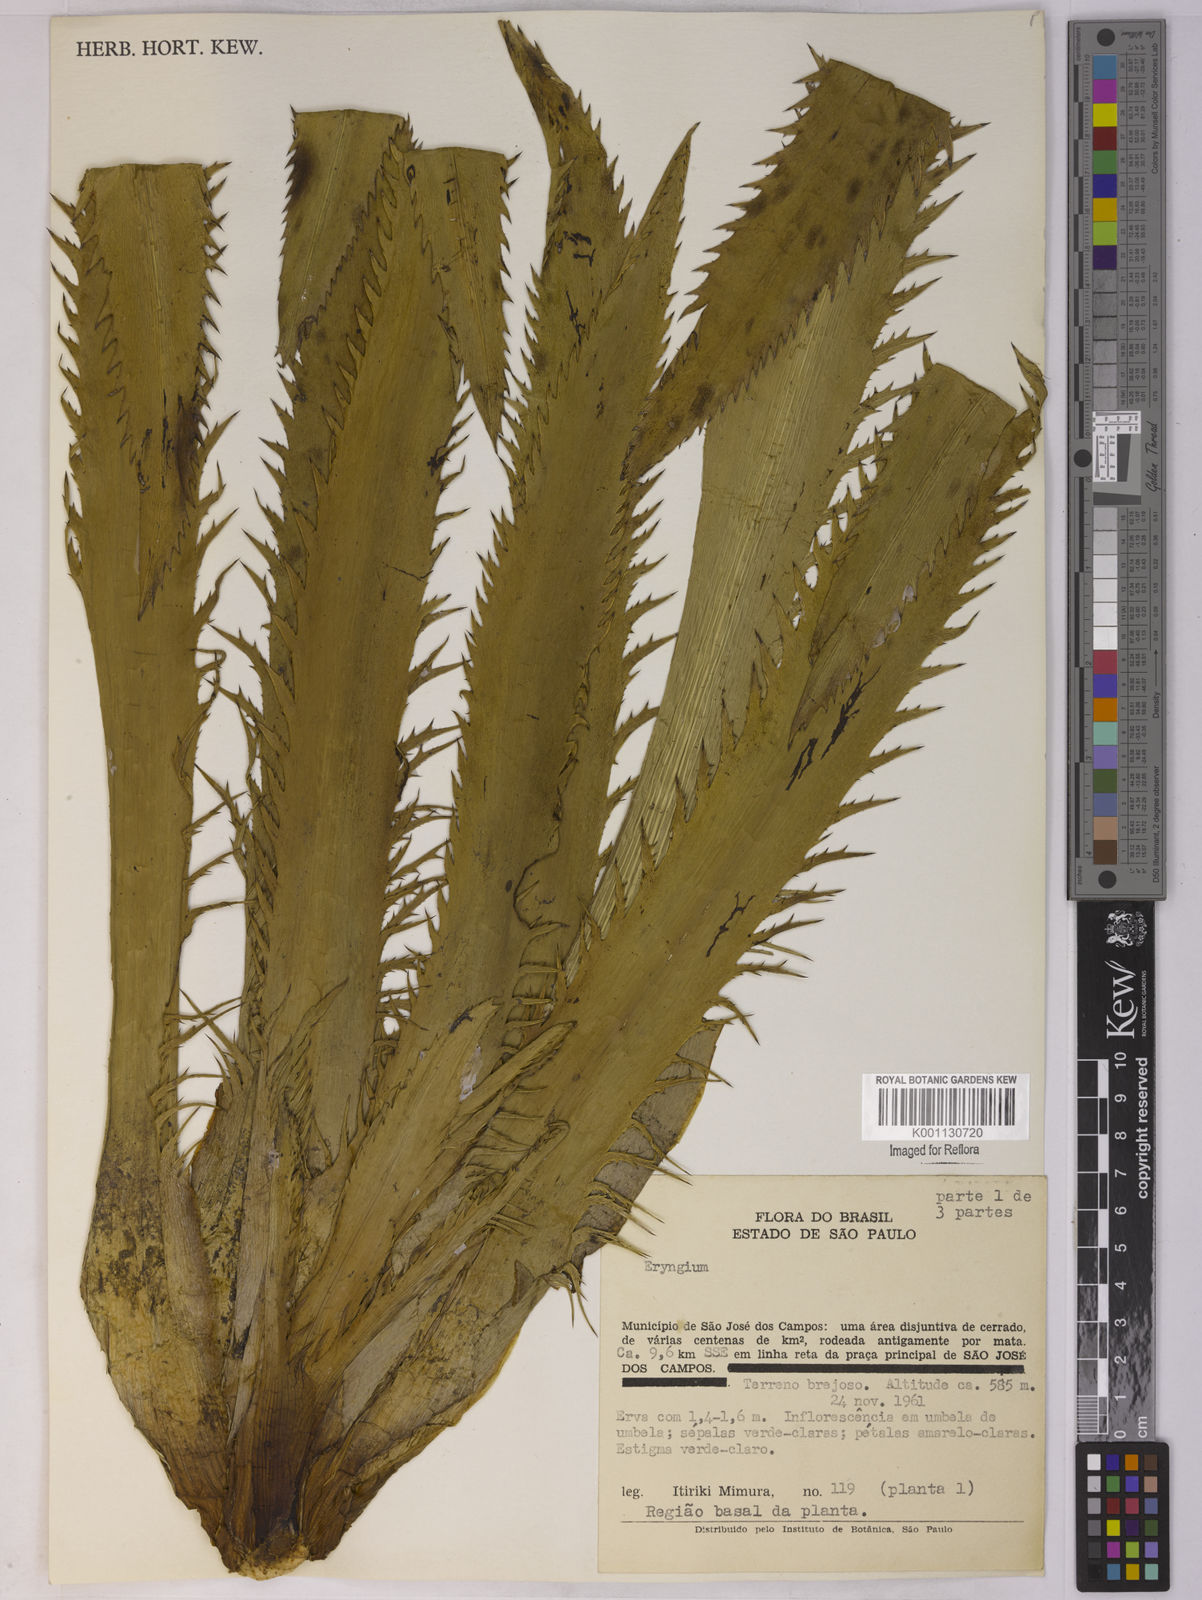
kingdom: Plantae
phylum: Tracheophyta
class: Magnoliopsida
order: Apiales
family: Apiaceae
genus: Eryngium
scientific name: Eryngium
